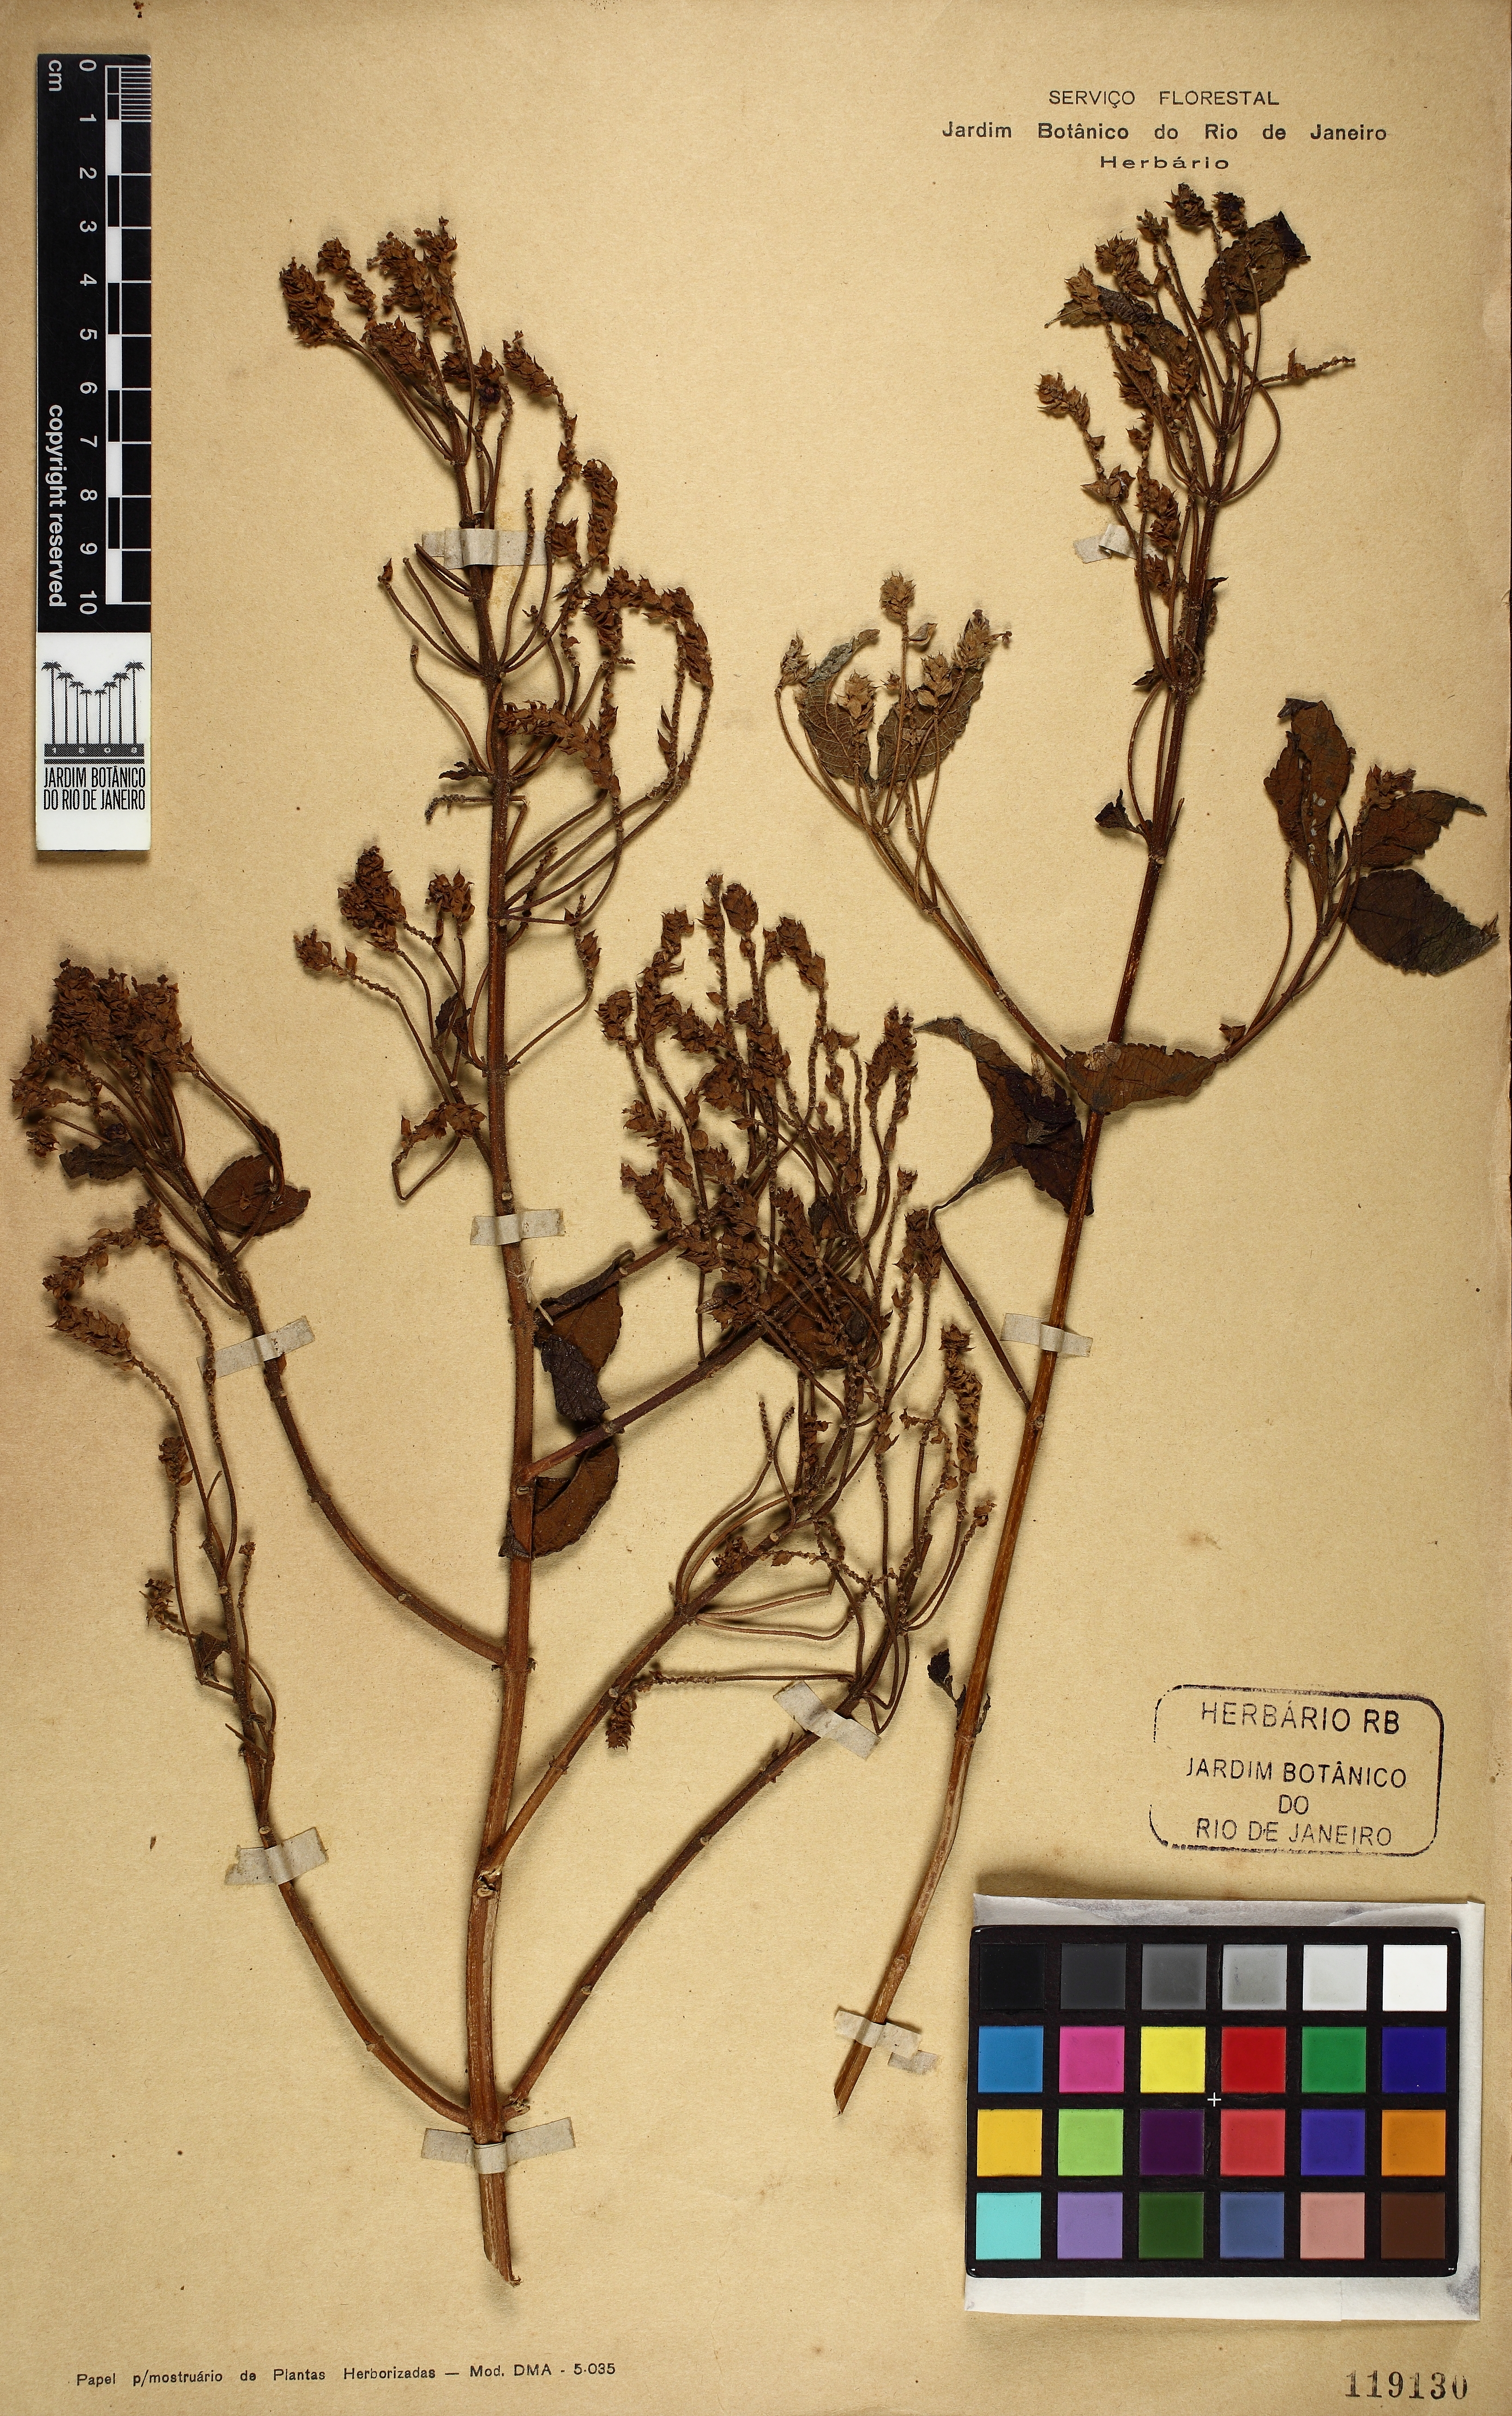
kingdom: Plantae
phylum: Tracheophyta
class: Magnoliopsida
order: Lamiales
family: Verbenaceae
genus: Lantana
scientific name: Lantana undulata
